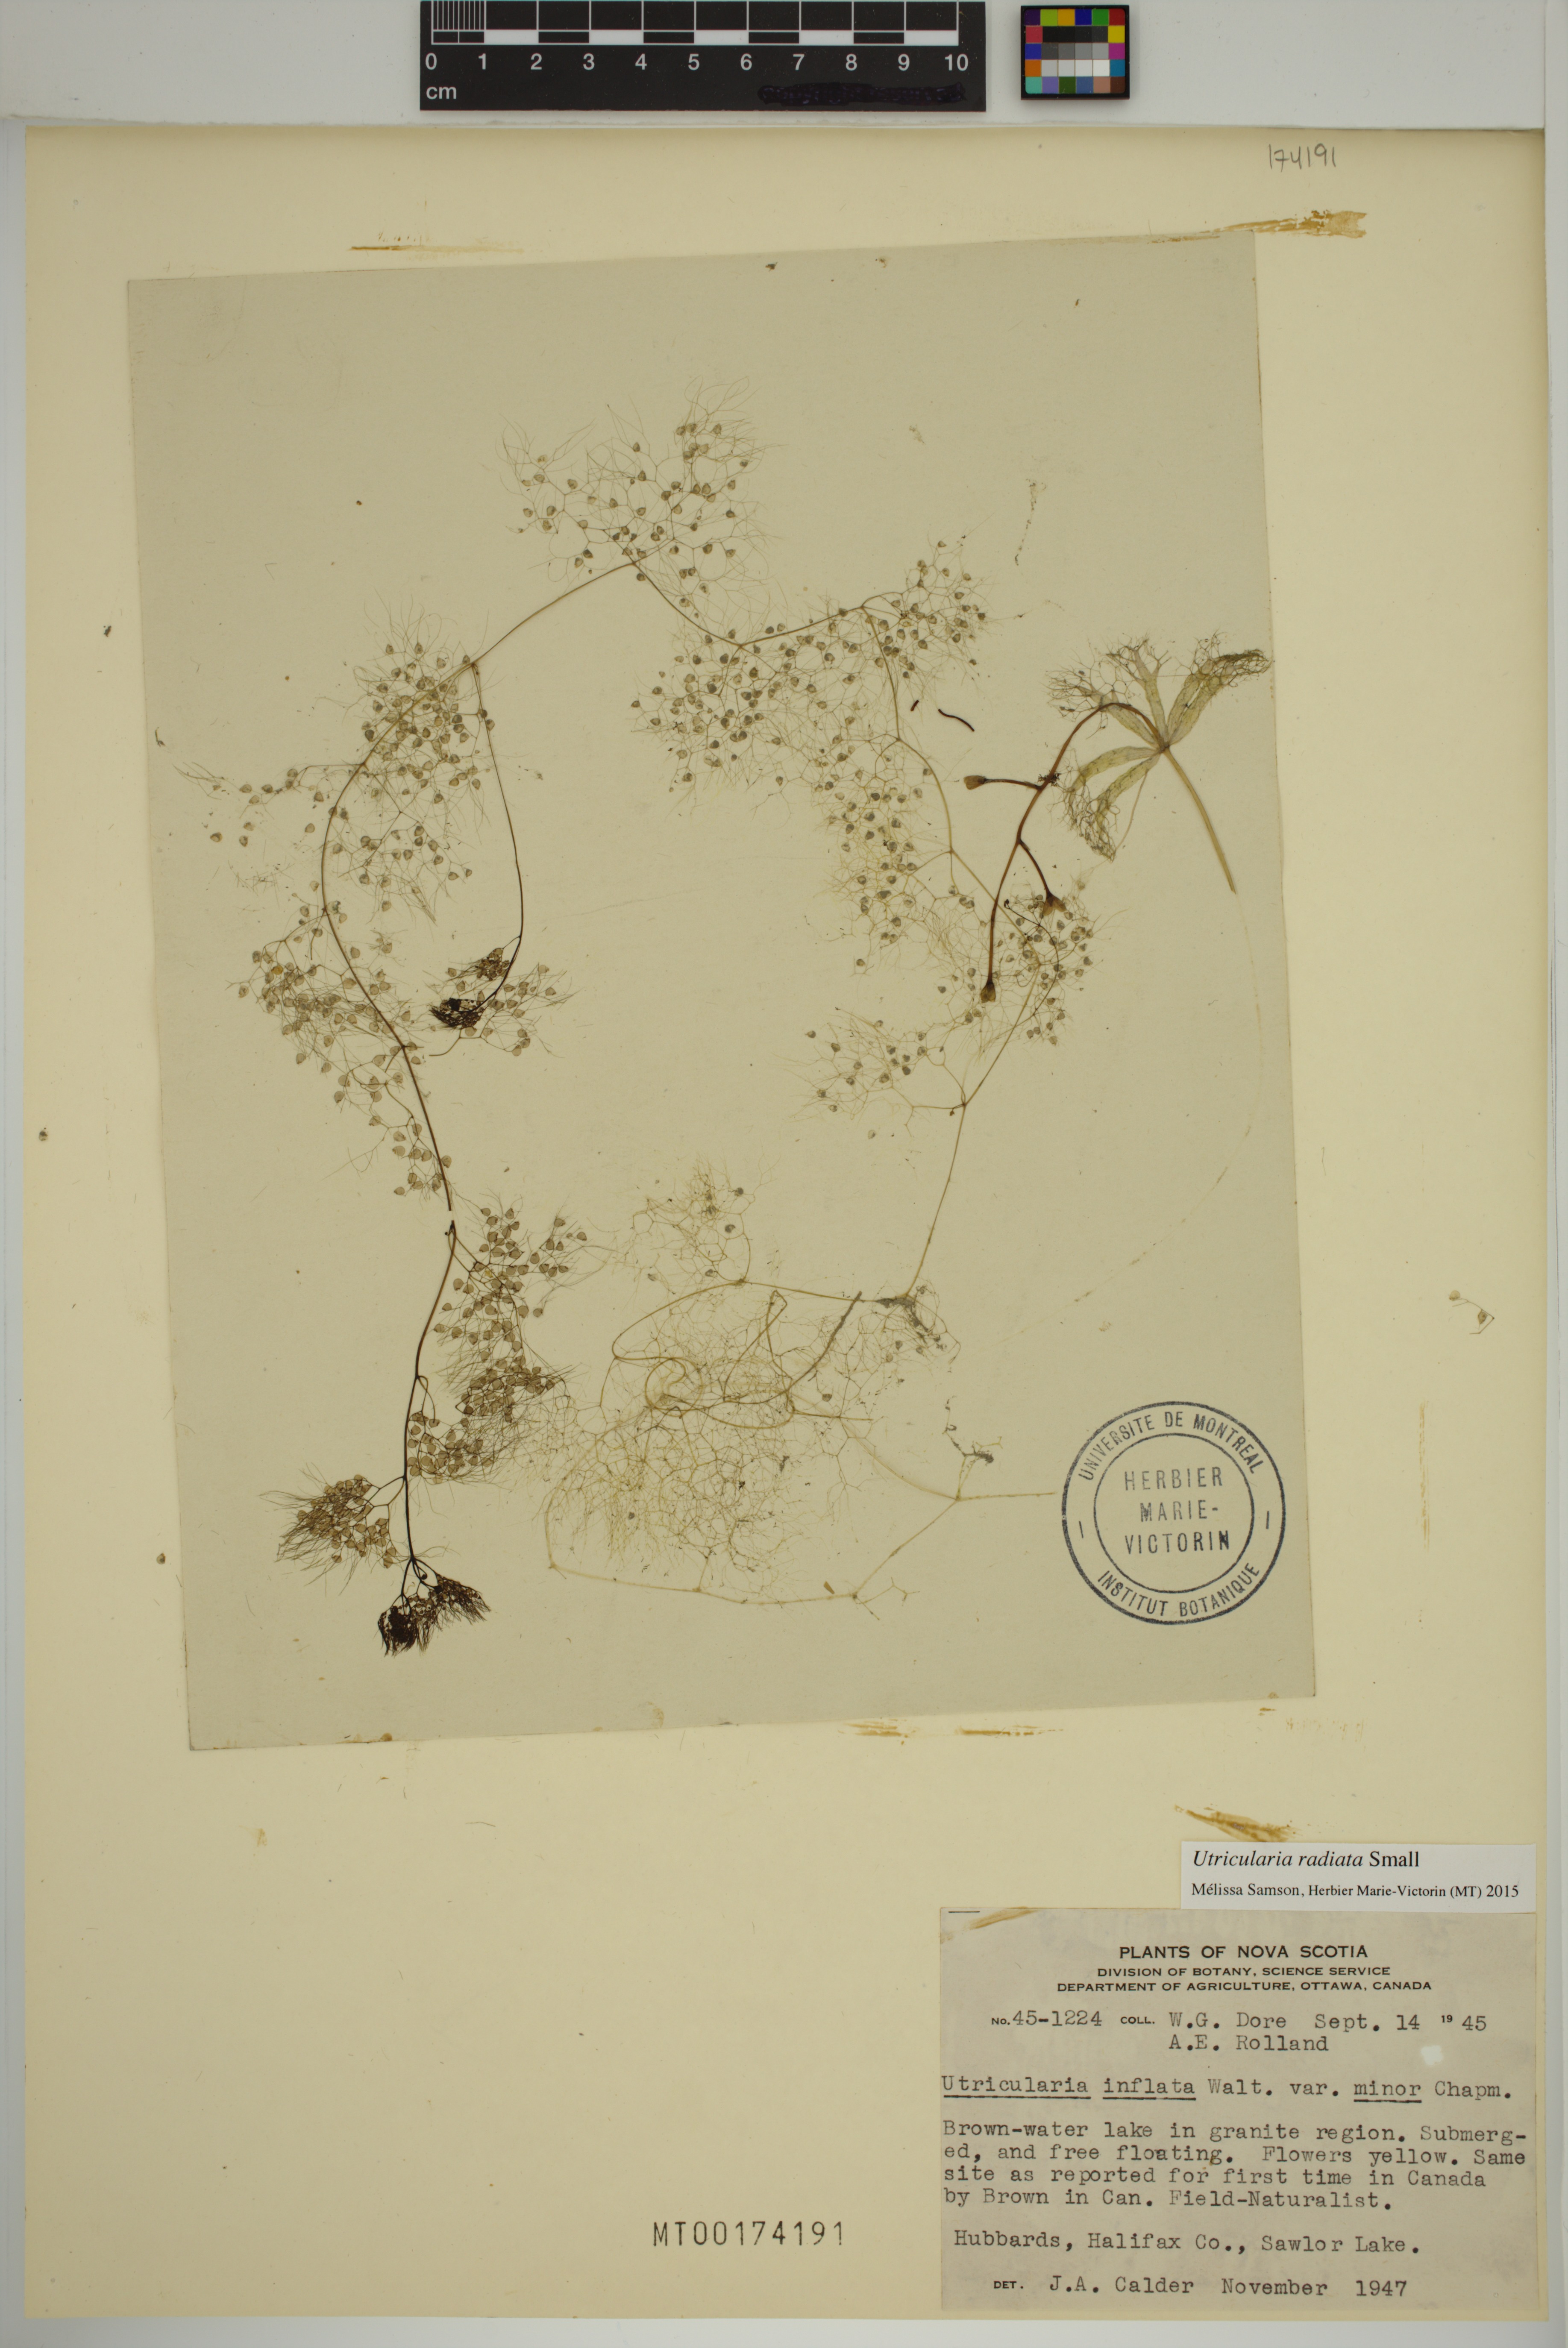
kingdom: Plantae
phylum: Tracheophyta
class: Magnoliopsida
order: Lamiales
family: Lentibulariaceae
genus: Utricularia
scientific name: Utricularia radiata
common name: Floating bladderwort
